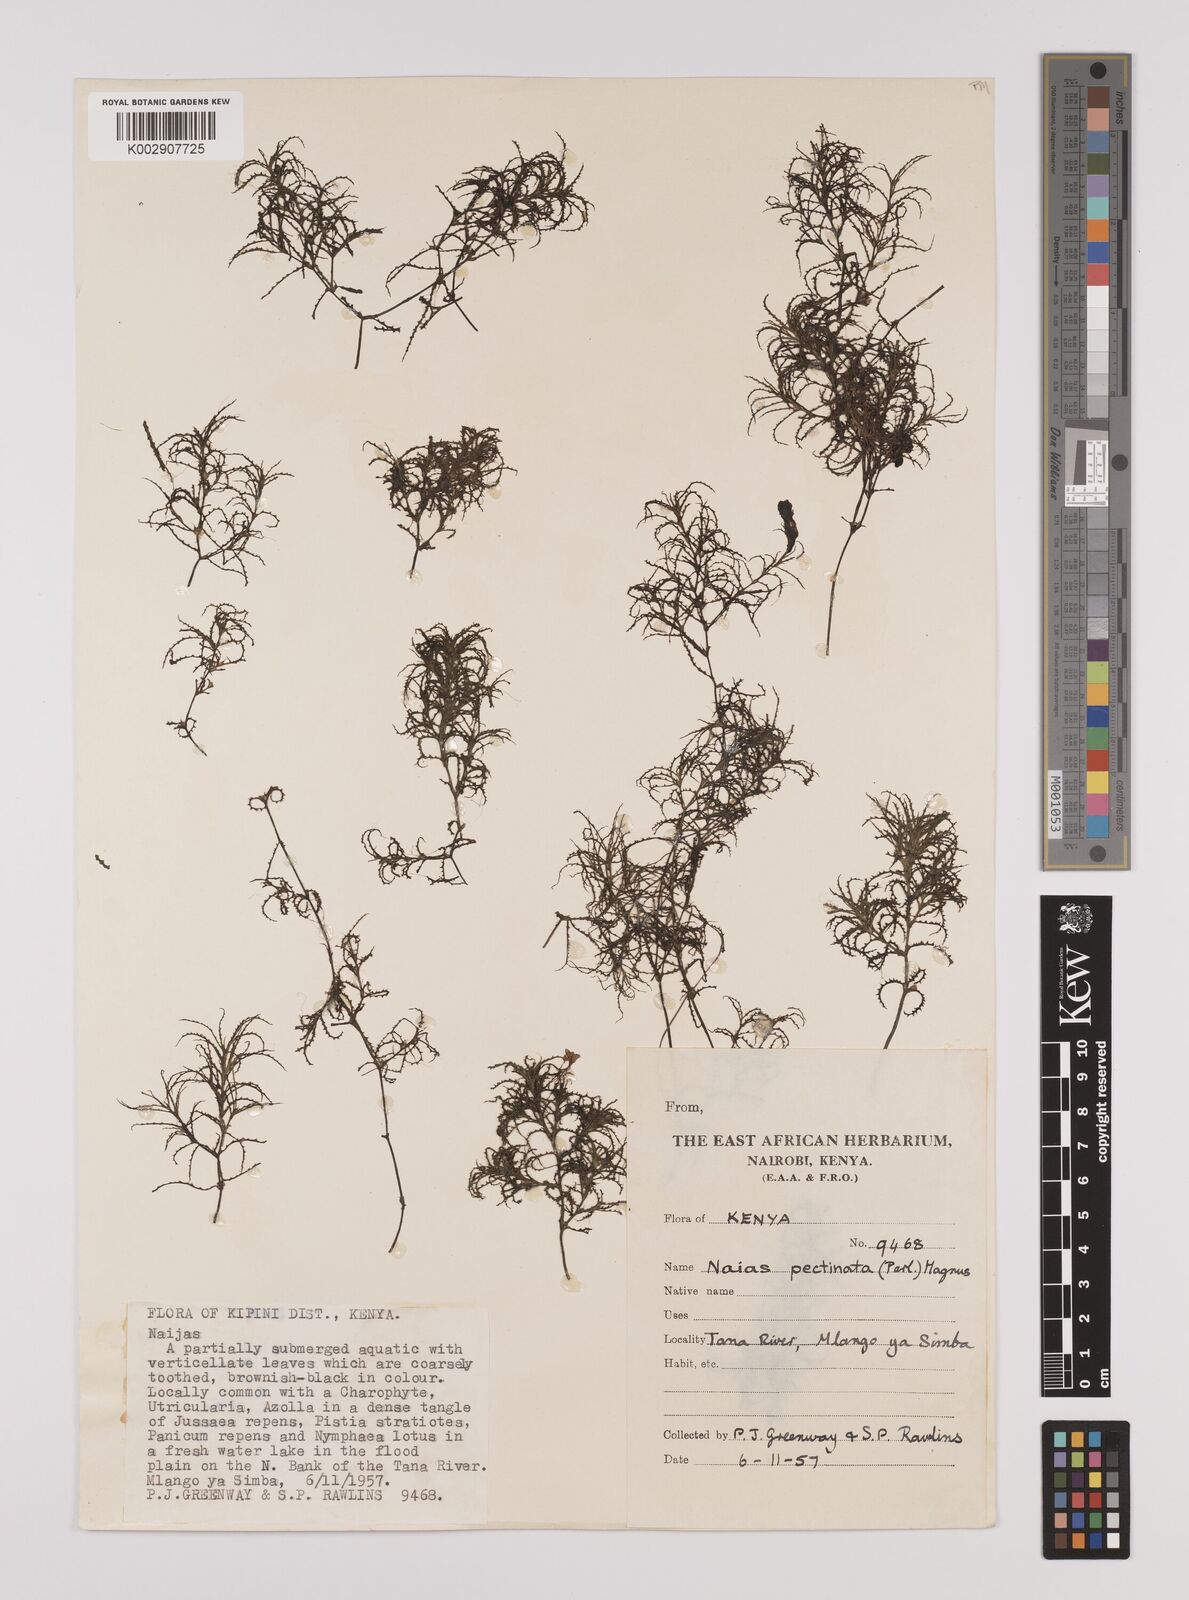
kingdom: Plantae
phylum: Tracheophyta
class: Liliopsida
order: Alismatales
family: Hydrocharitaceae
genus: Najas
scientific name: Najas horrida
